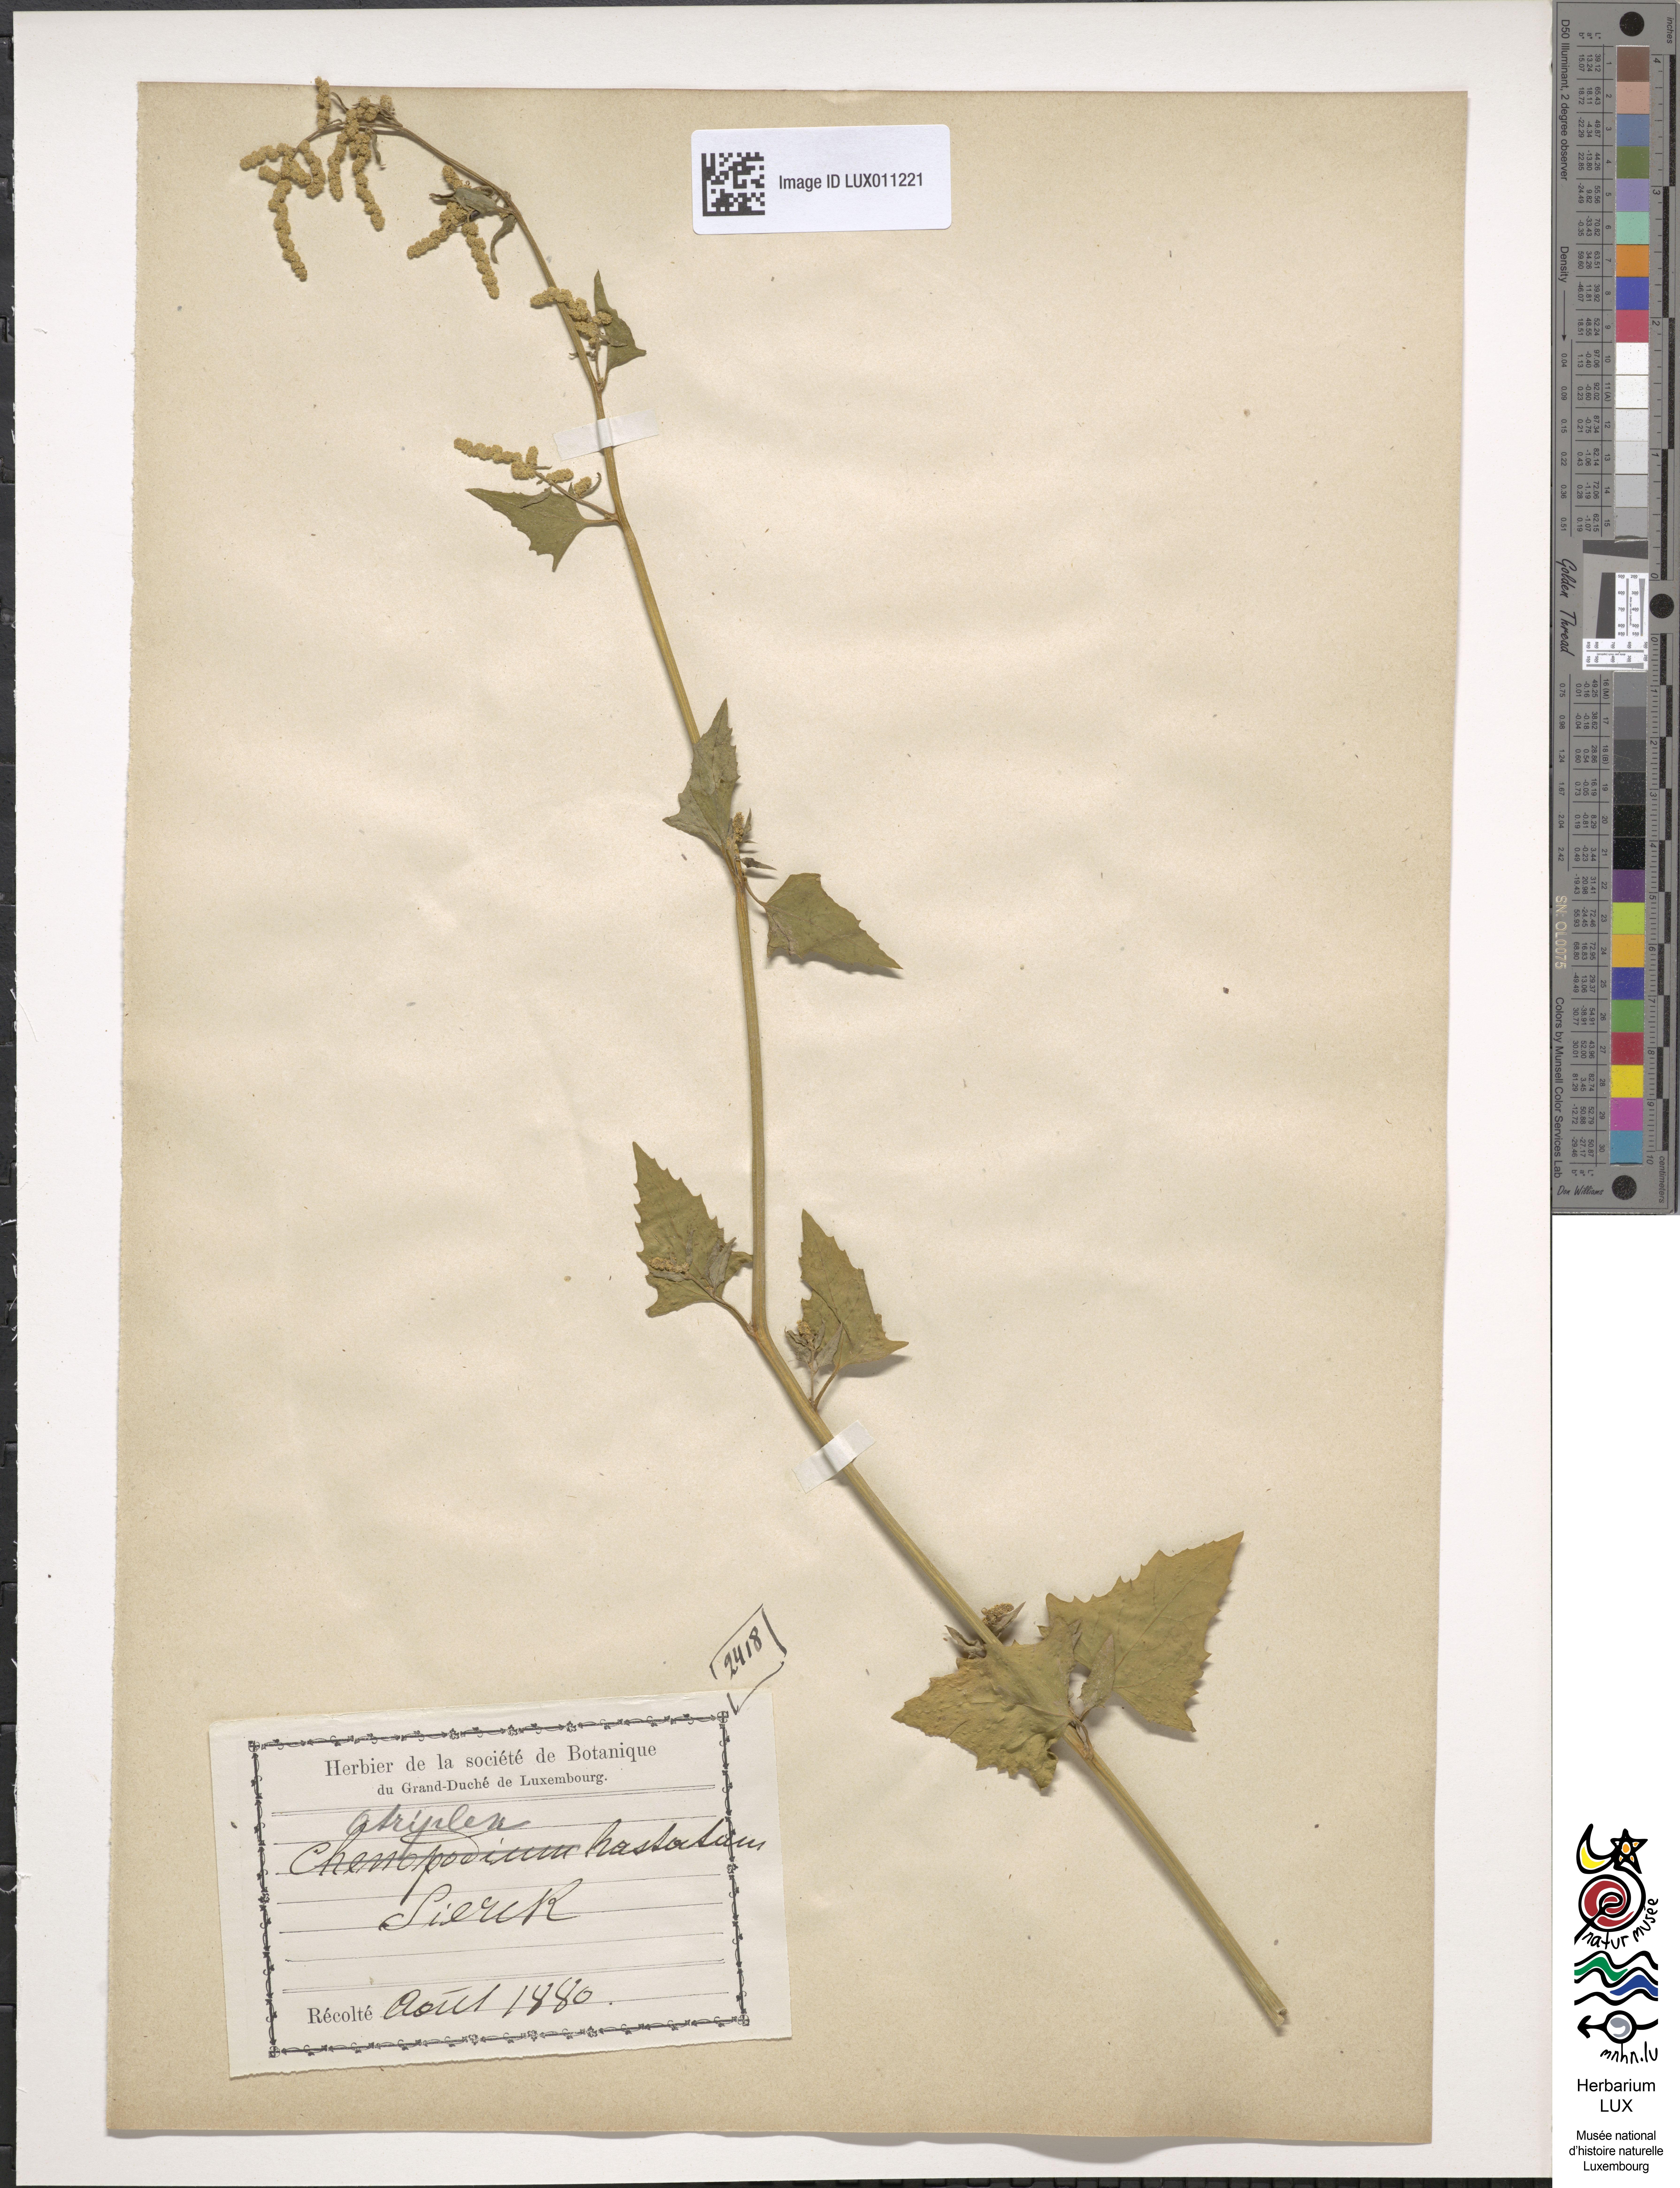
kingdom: Plantae
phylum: Tracheophyta
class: Magnoliopsida
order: Caryophyllales
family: Amaranthaceae
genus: Atriplex
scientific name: Atriplex calotheca
